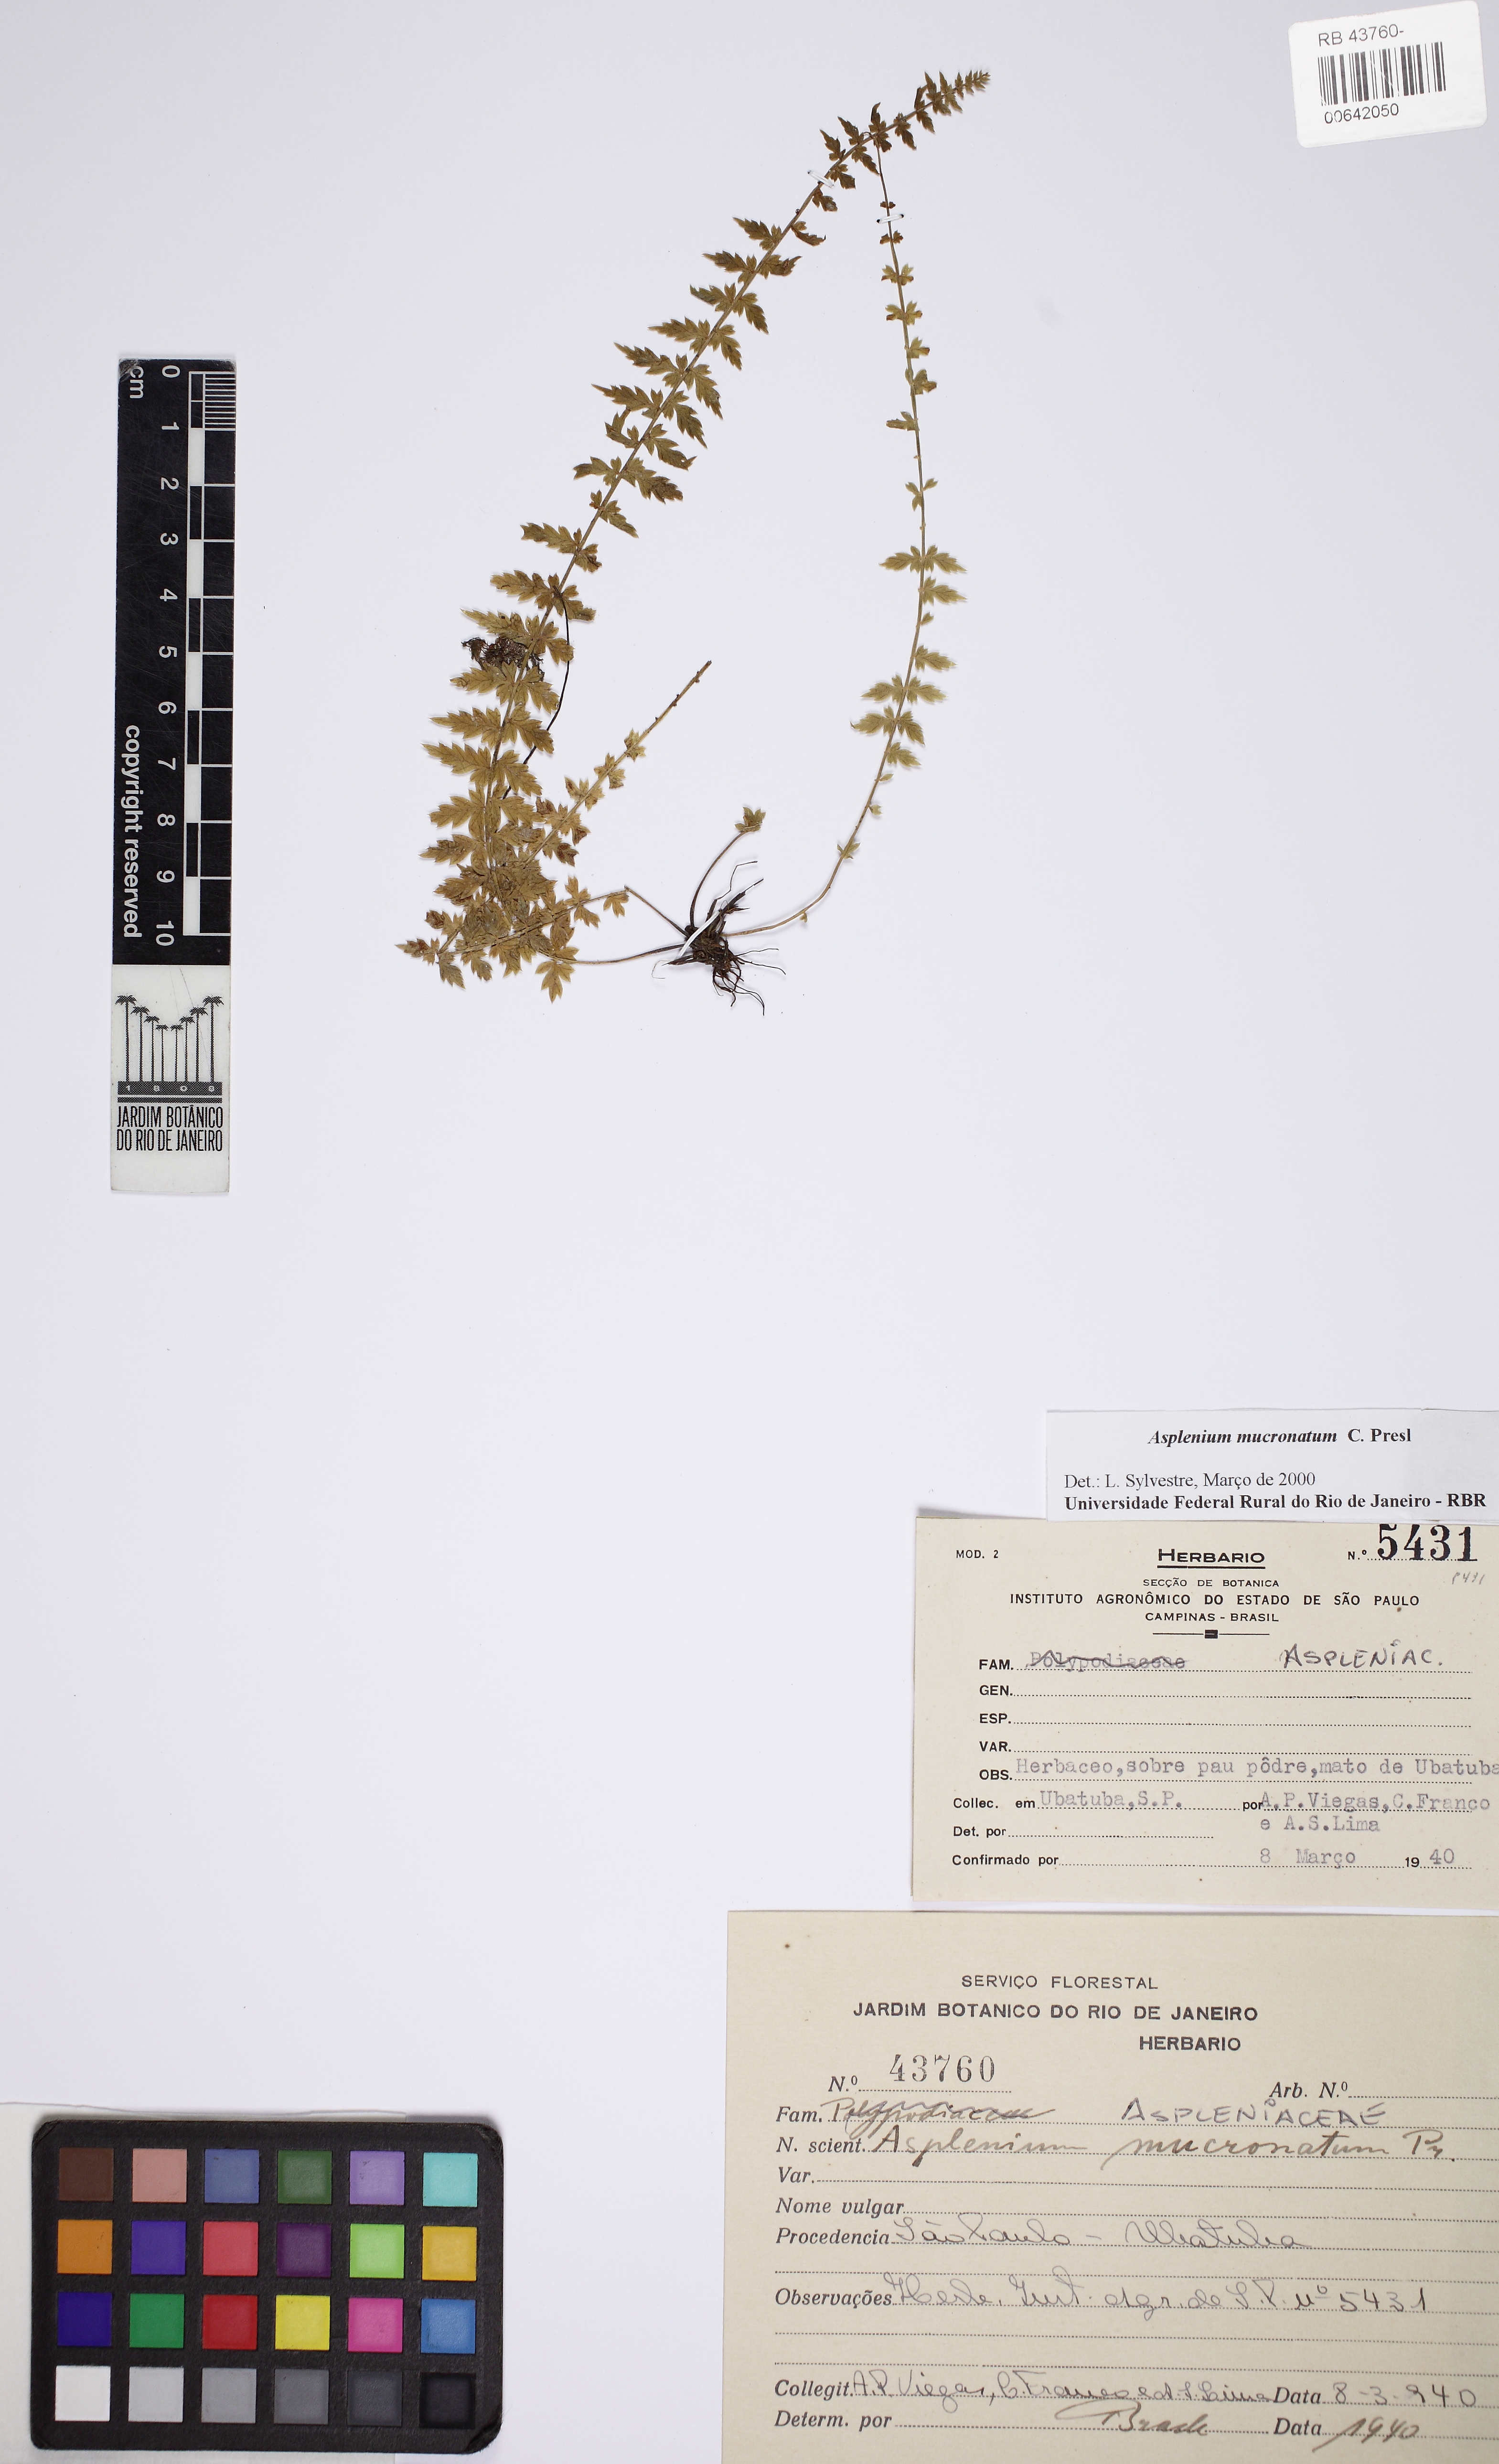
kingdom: Plantae
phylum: Tracheophyta
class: Polypodiopsida
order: Polypodiales
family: Aspleniaceae
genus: Asplenium
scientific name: Asplenium mucronatum
